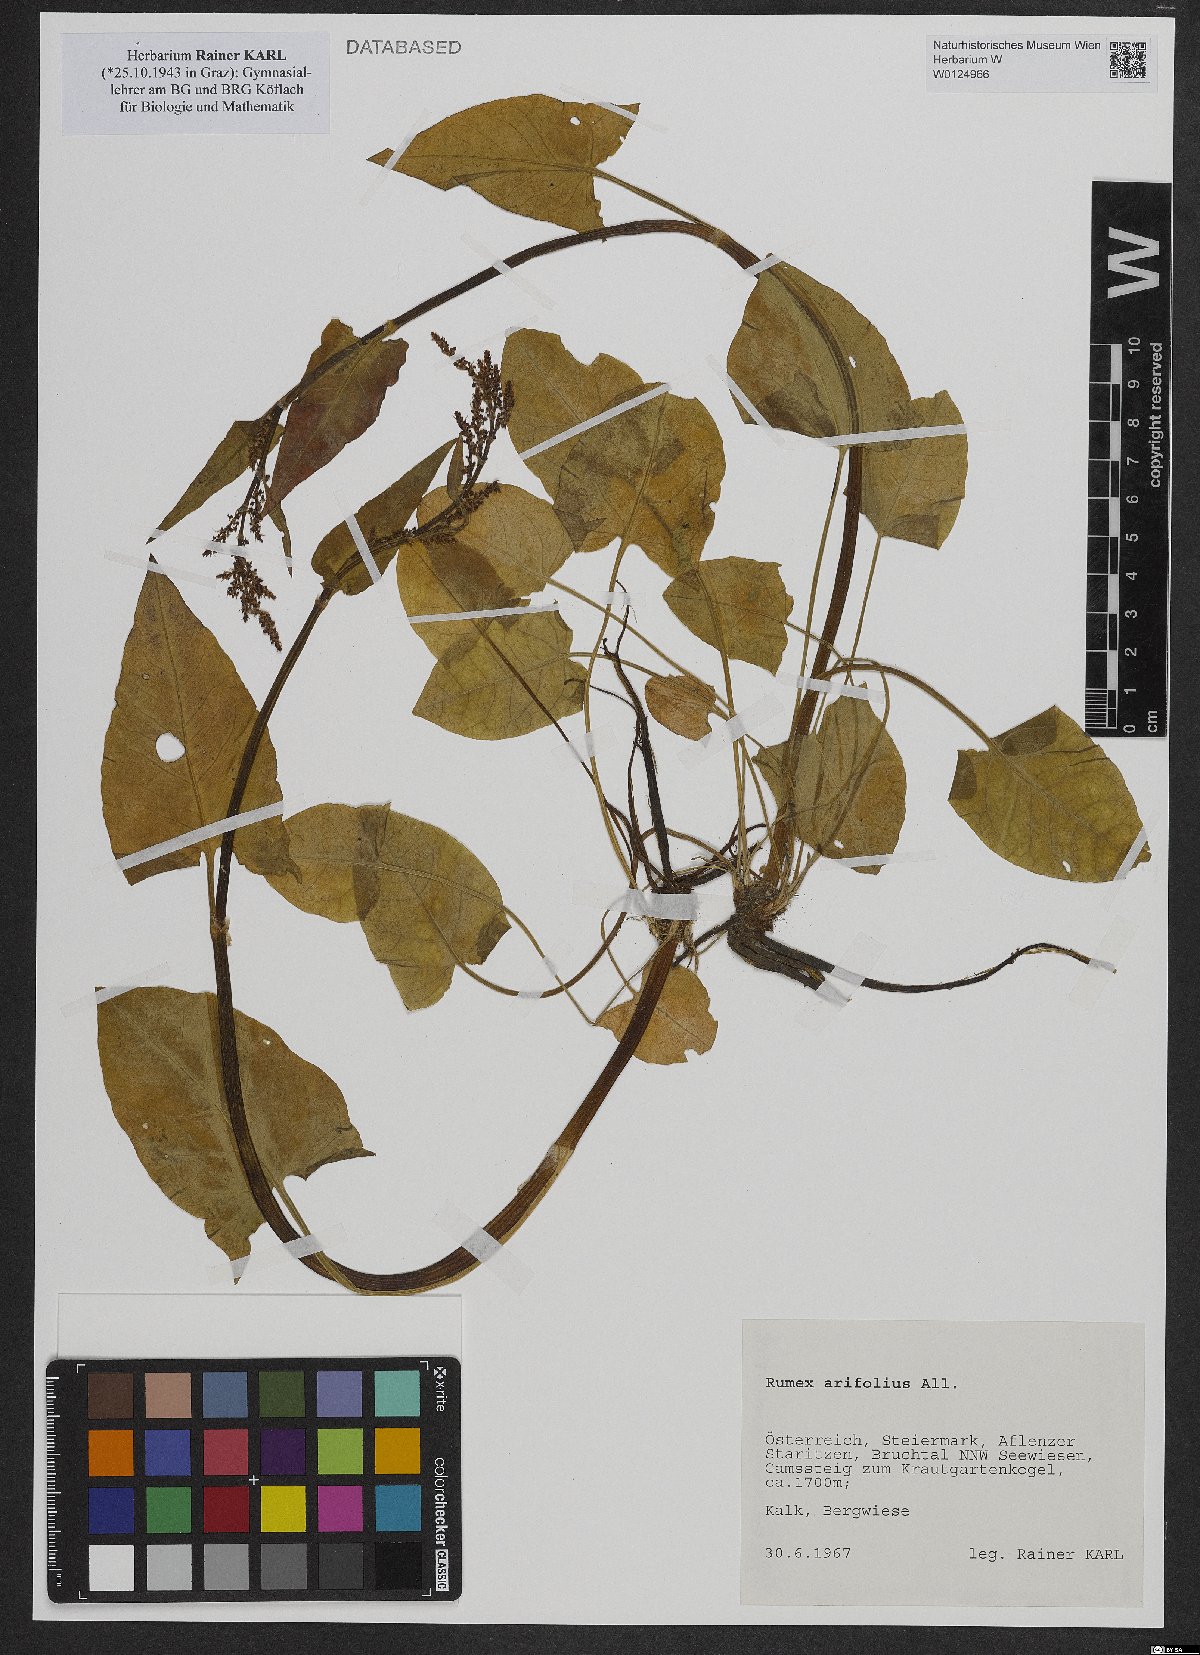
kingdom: Plantae
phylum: Tracheophyta
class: Magnoliopsida
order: Caryophyllales
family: Polygonaceae
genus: Rumex
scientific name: Rumex arifolius
